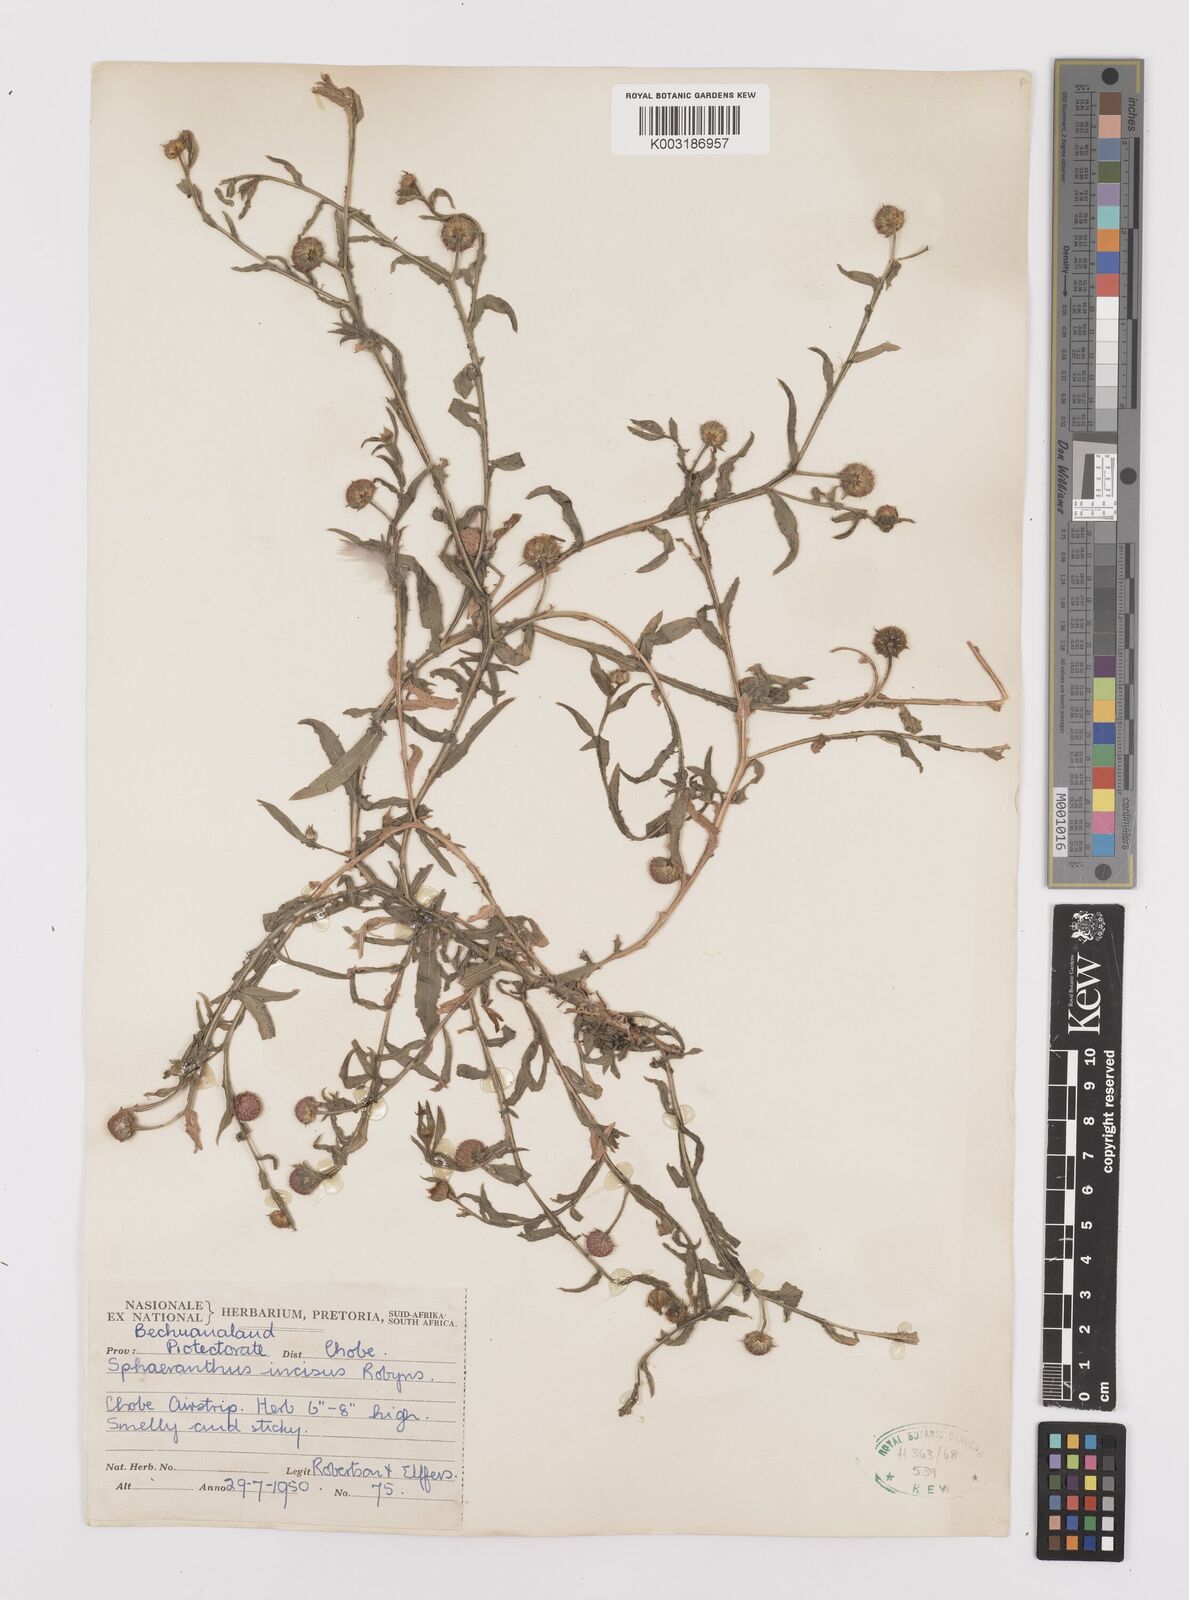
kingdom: Plantae
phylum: Tracheophyta
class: Magnoliopsida
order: Asterales
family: Asteraceae
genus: Sphaeranthus
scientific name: Sphaeranthus peduncularis
